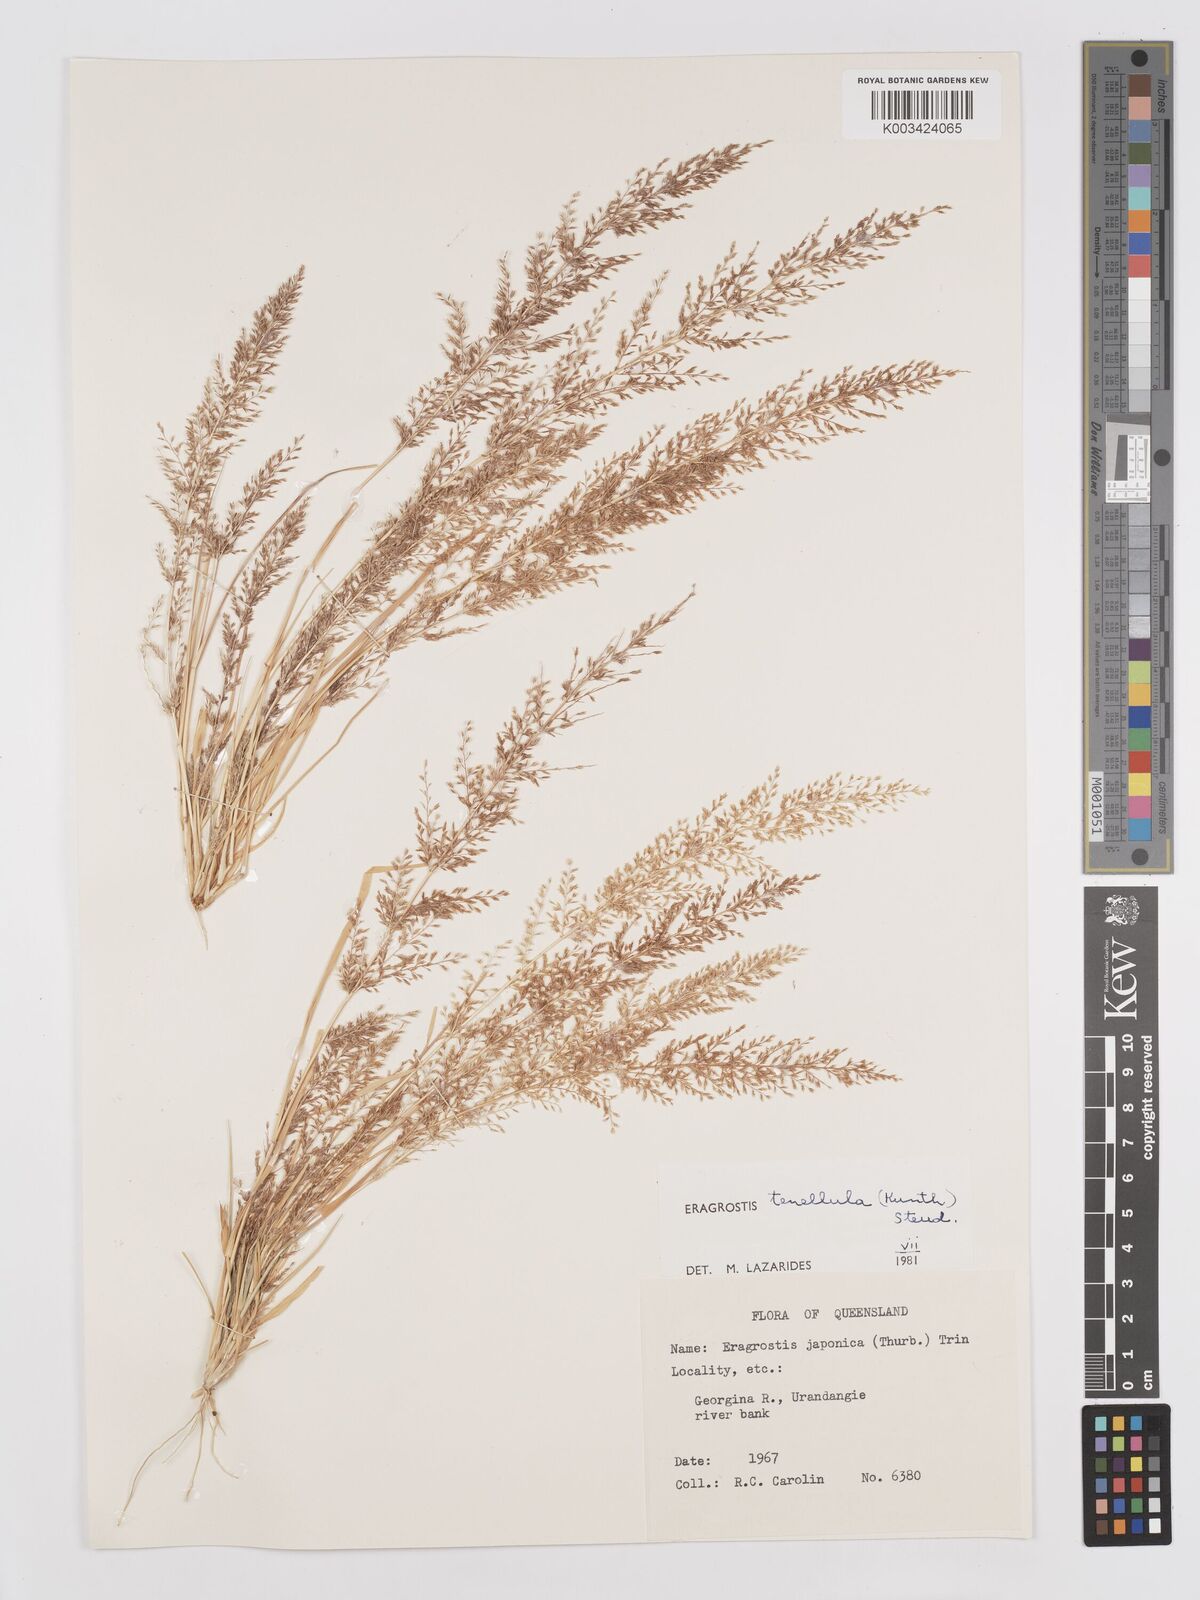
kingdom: Plantae
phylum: Tracheophyta
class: Liliopsida
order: Poales
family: Poaceae
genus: Eragrostis
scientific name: Eragrostis tenellula
